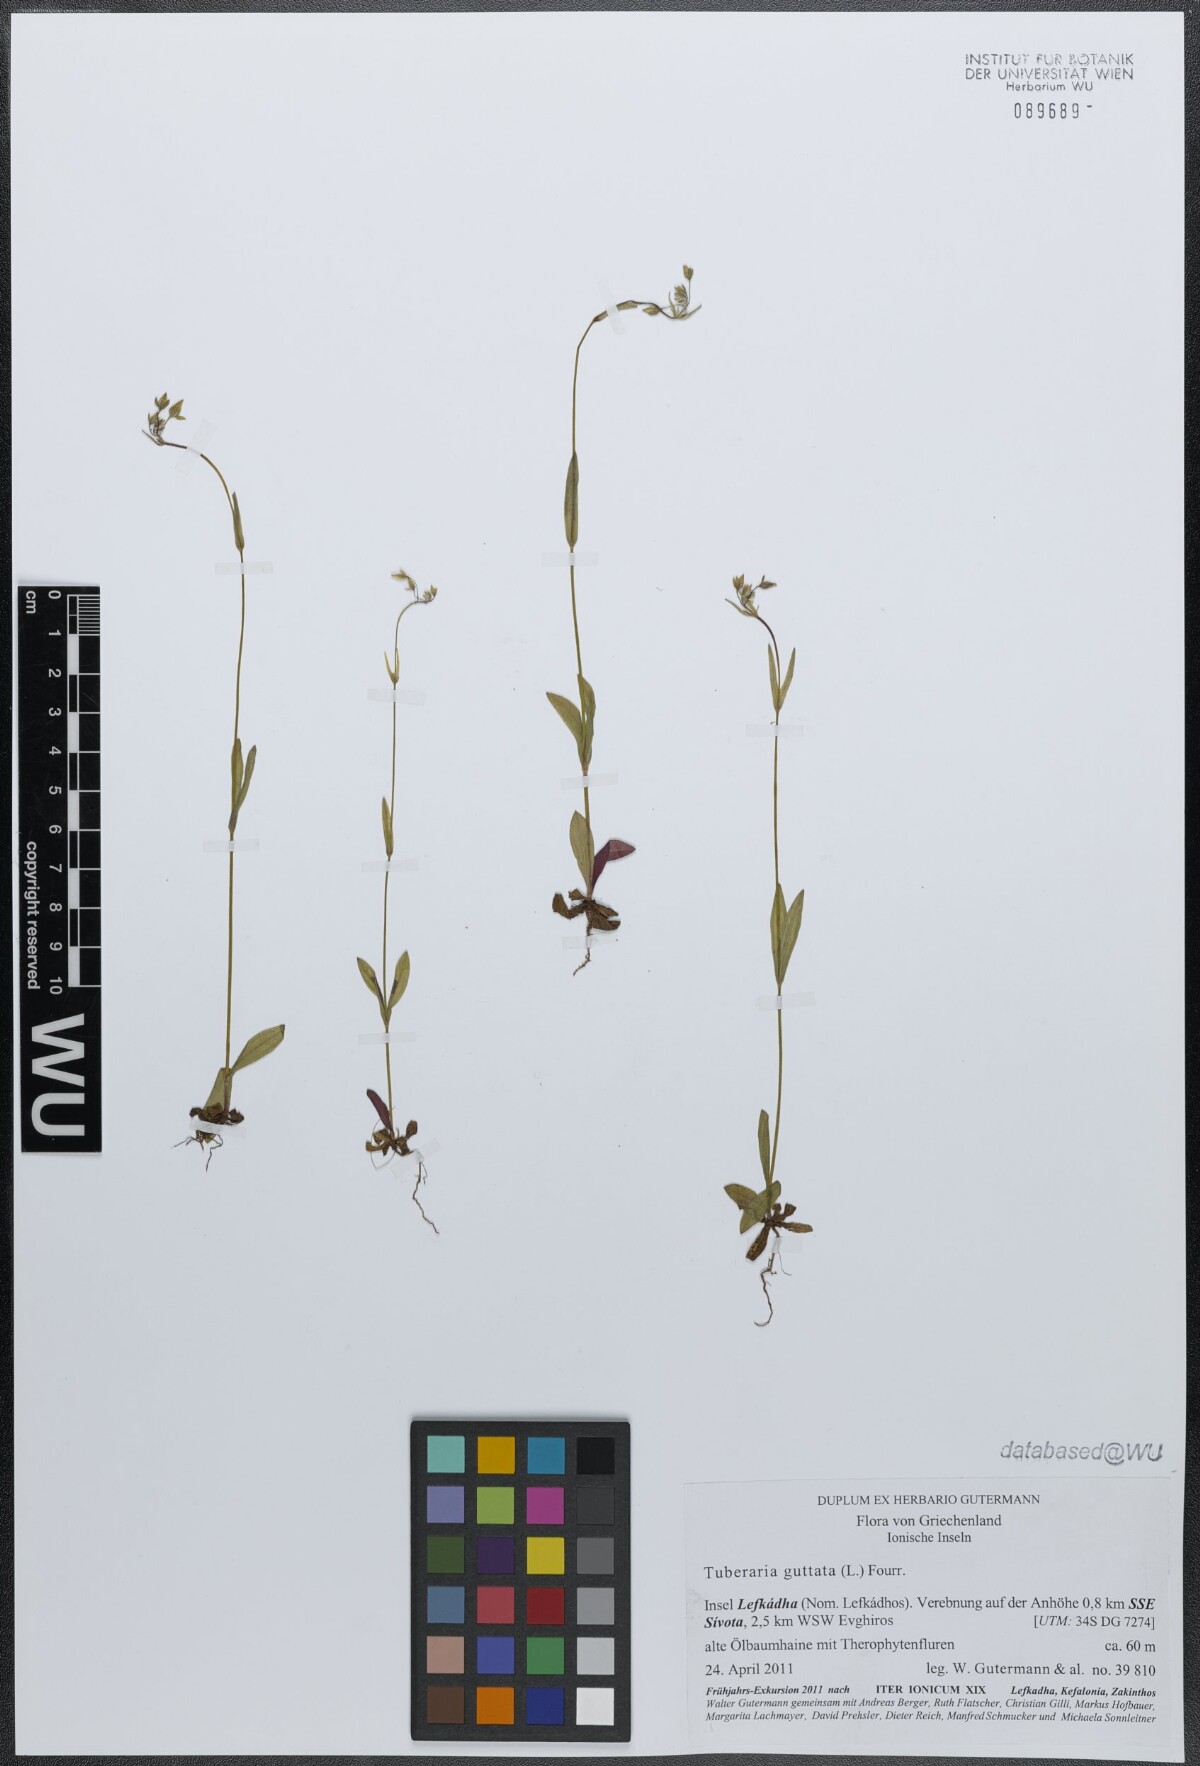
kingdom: Plantae
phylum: Tracheophyta
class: Magnoliopsida
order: Malvales
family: Cistaceae
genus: Tuberaria
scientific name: Tuberaria guttata
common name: Spotted rock-rose
